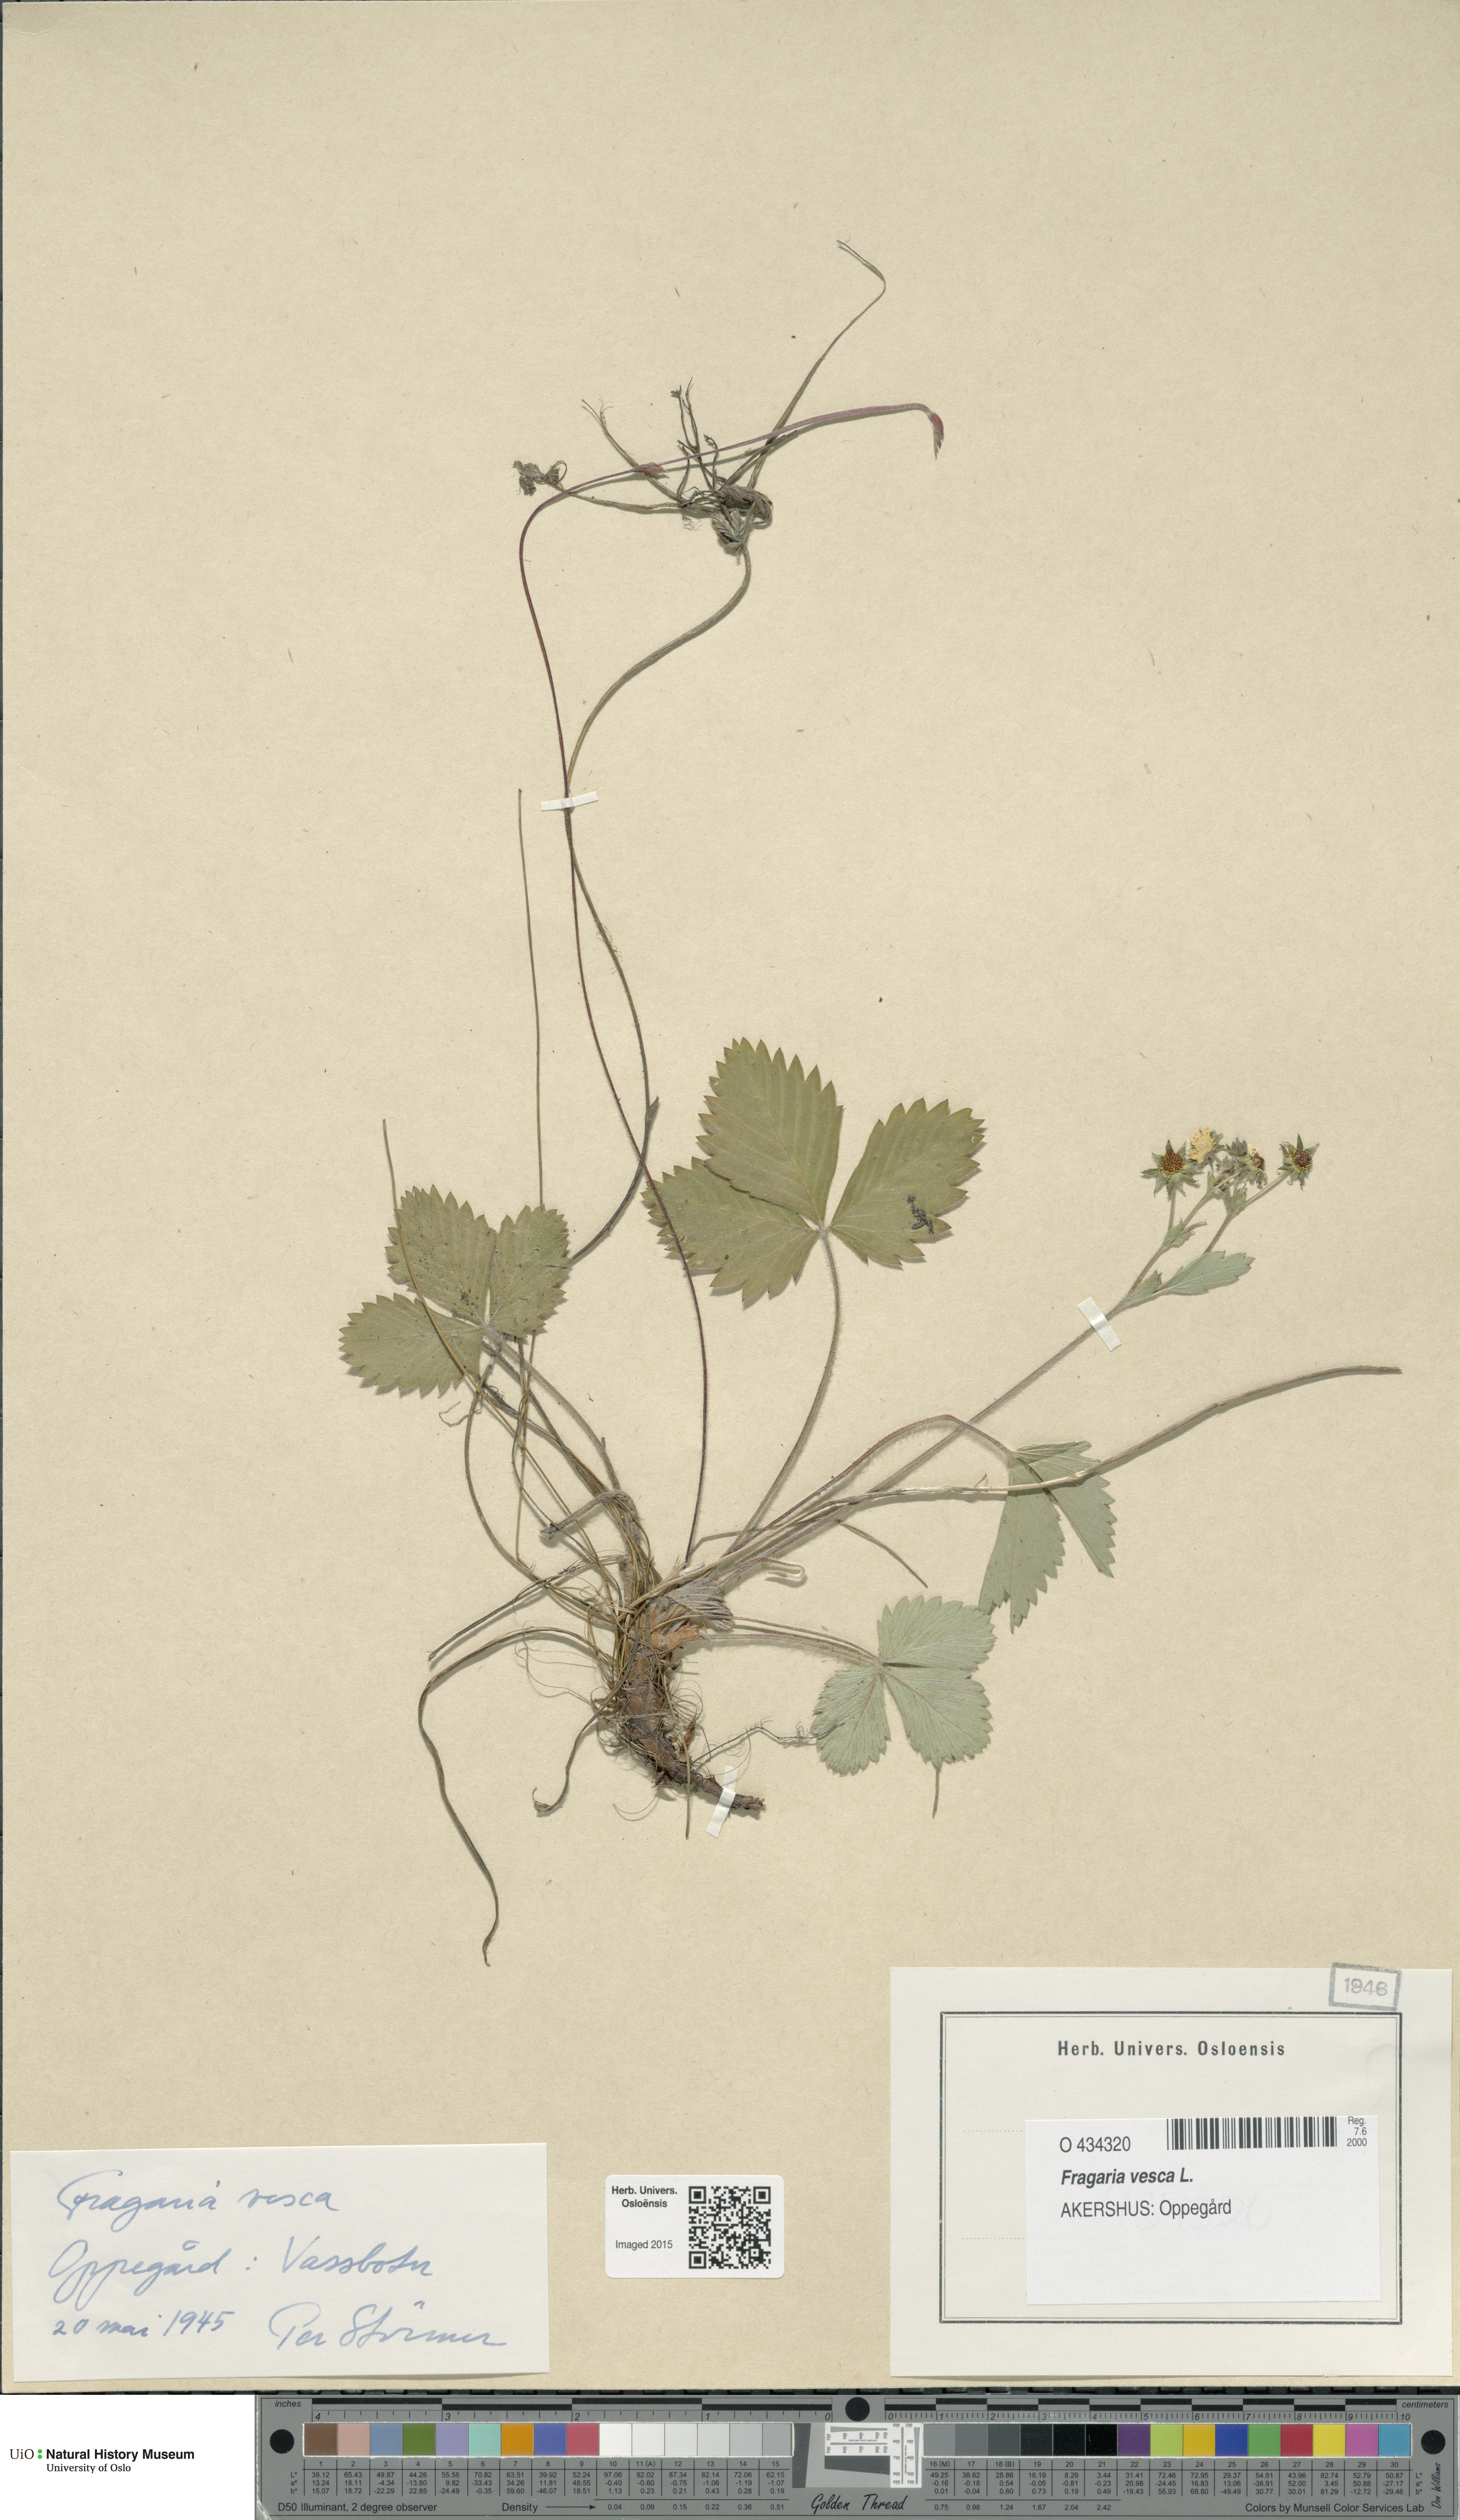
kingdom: Plantae
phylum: Tracheophyta
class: Magnoliopsida
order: Rosales
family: Rosaceae
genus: Fragaria
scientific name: Fragaria vesca
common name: Wild strawberry
